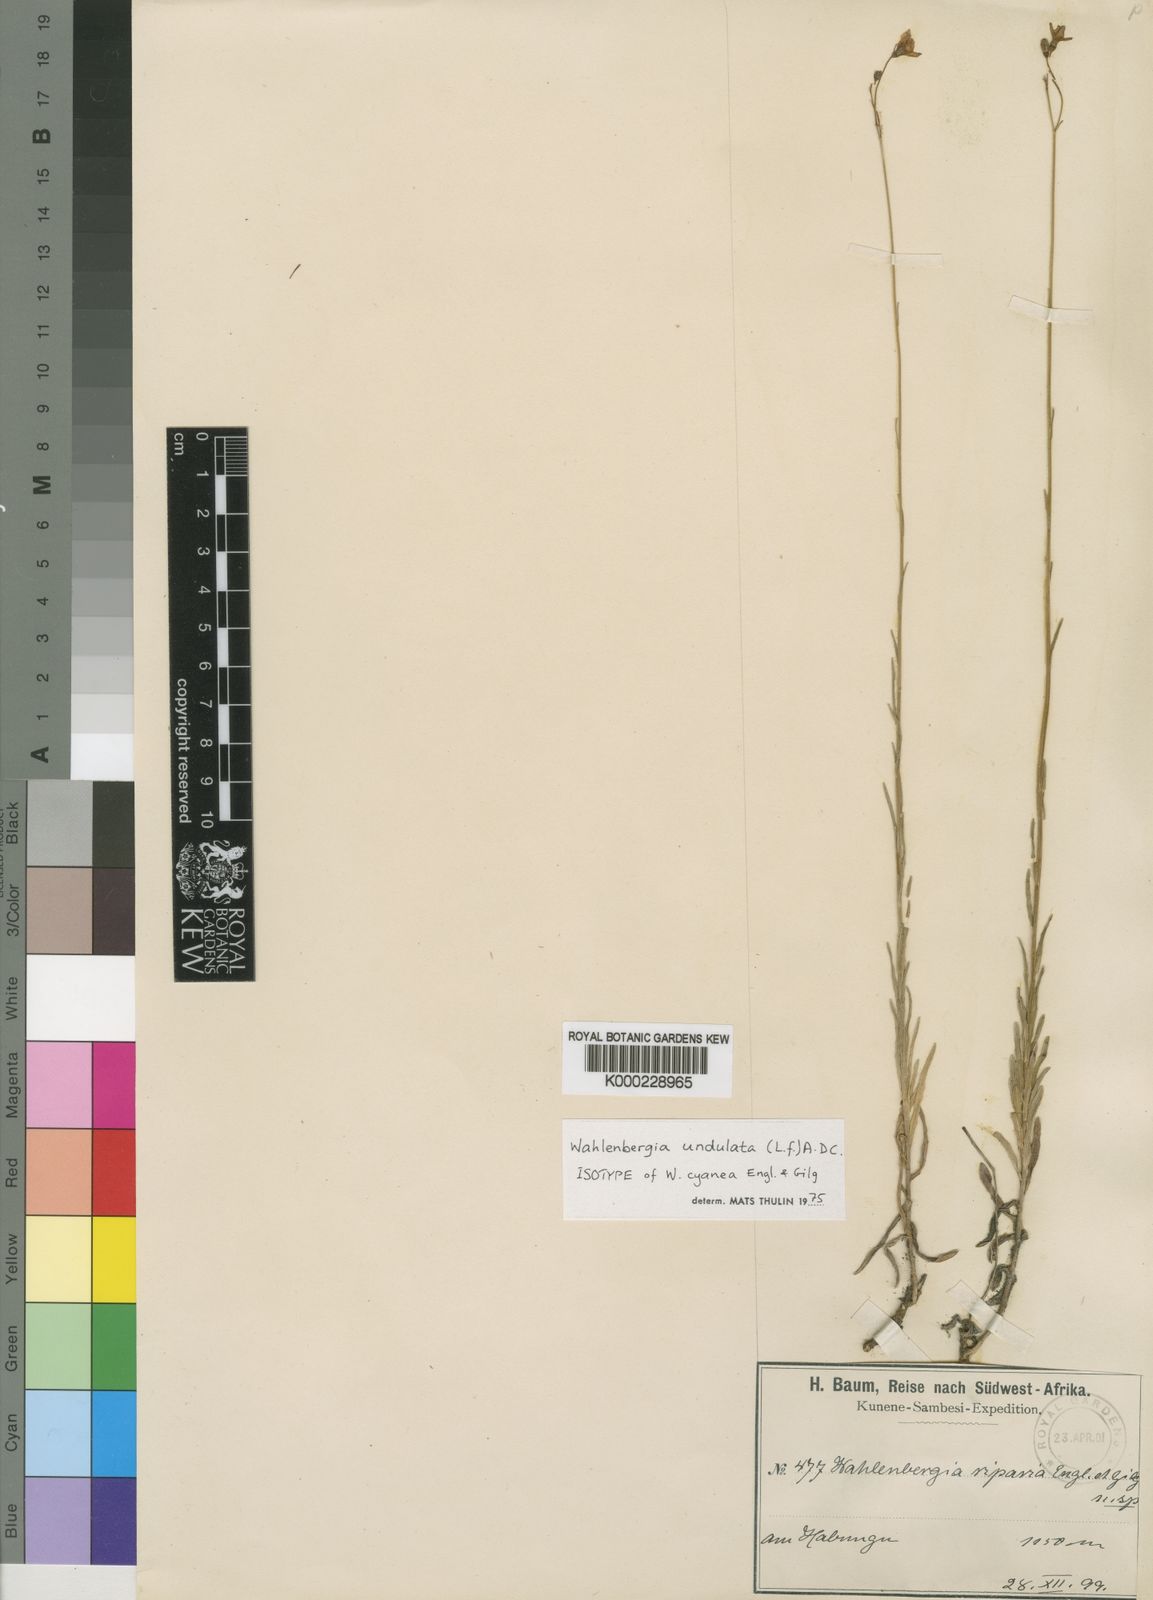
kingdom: Plantae
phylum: Tracheophyta
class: Magnoliopsida
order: Asterales
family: Campanulaceae
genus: Wahlenbergia
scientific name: Wahlenbergia undulata
